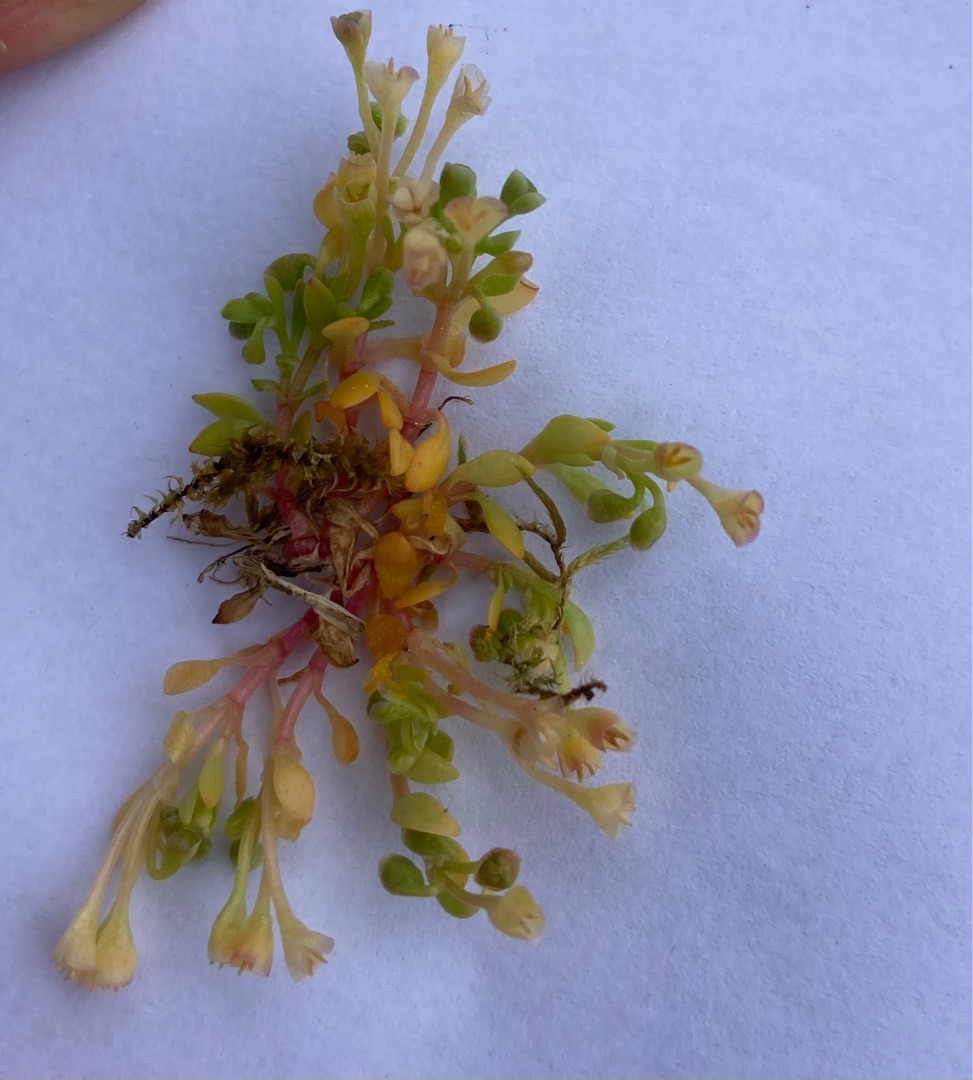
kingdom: Plantae
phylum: Tracheophyta
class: Magnoliopsida
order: Caryophyllales
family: Montiaceae
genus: Montia
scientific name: Montia arvensis
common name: Liden vandarve
